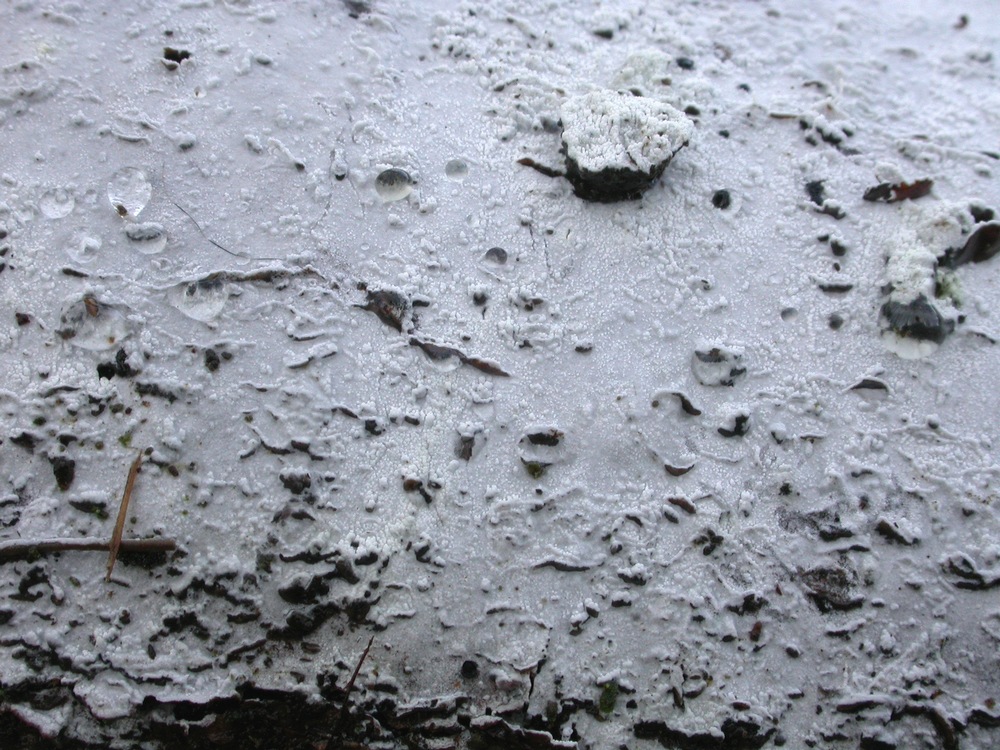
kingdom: Fungi
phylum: Basidiomycota
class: Agaricomycetes
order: Cantharellales
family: Hydnaceae
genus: Sistotrema
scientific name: Sistotrema brinkmannii
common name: bønnesporet kroneskorpe
